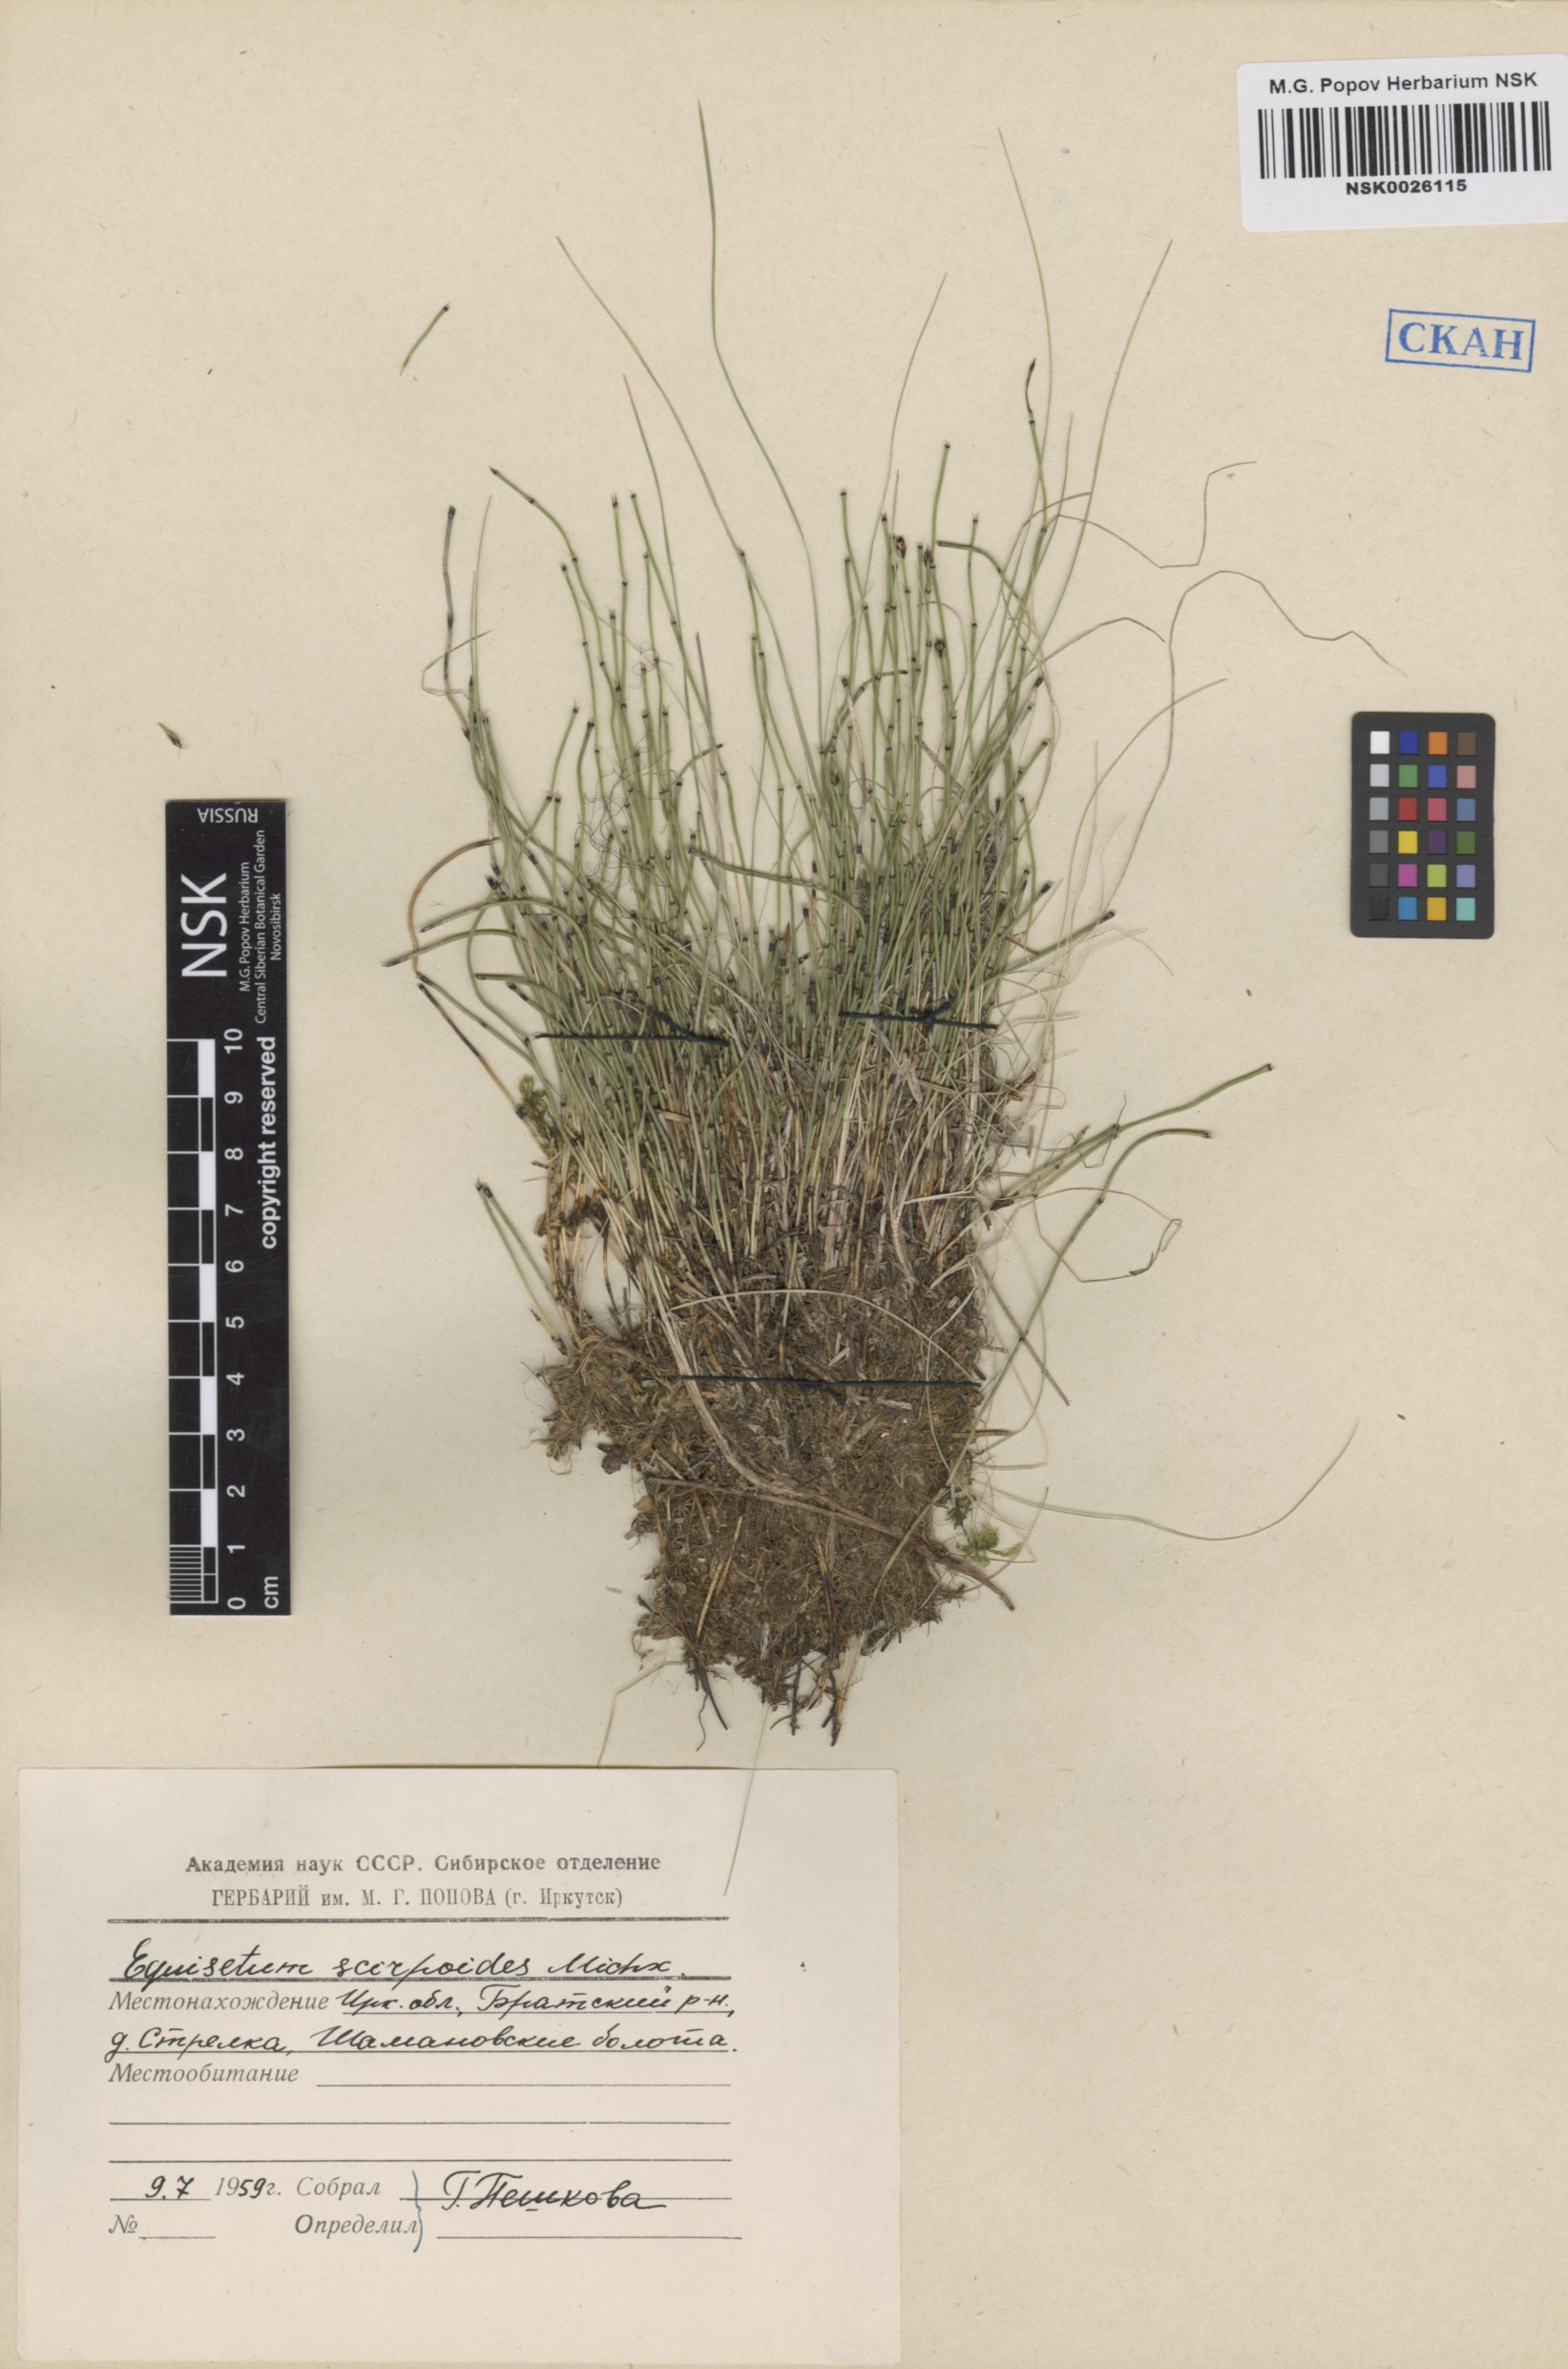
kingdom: Plantae
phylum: Tracheophyta
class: Polypodiopsida
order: Equisetales
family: Equisetaceae
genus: Equisetum
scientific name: Equisetum scirpoides
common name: Delicate horsetail
